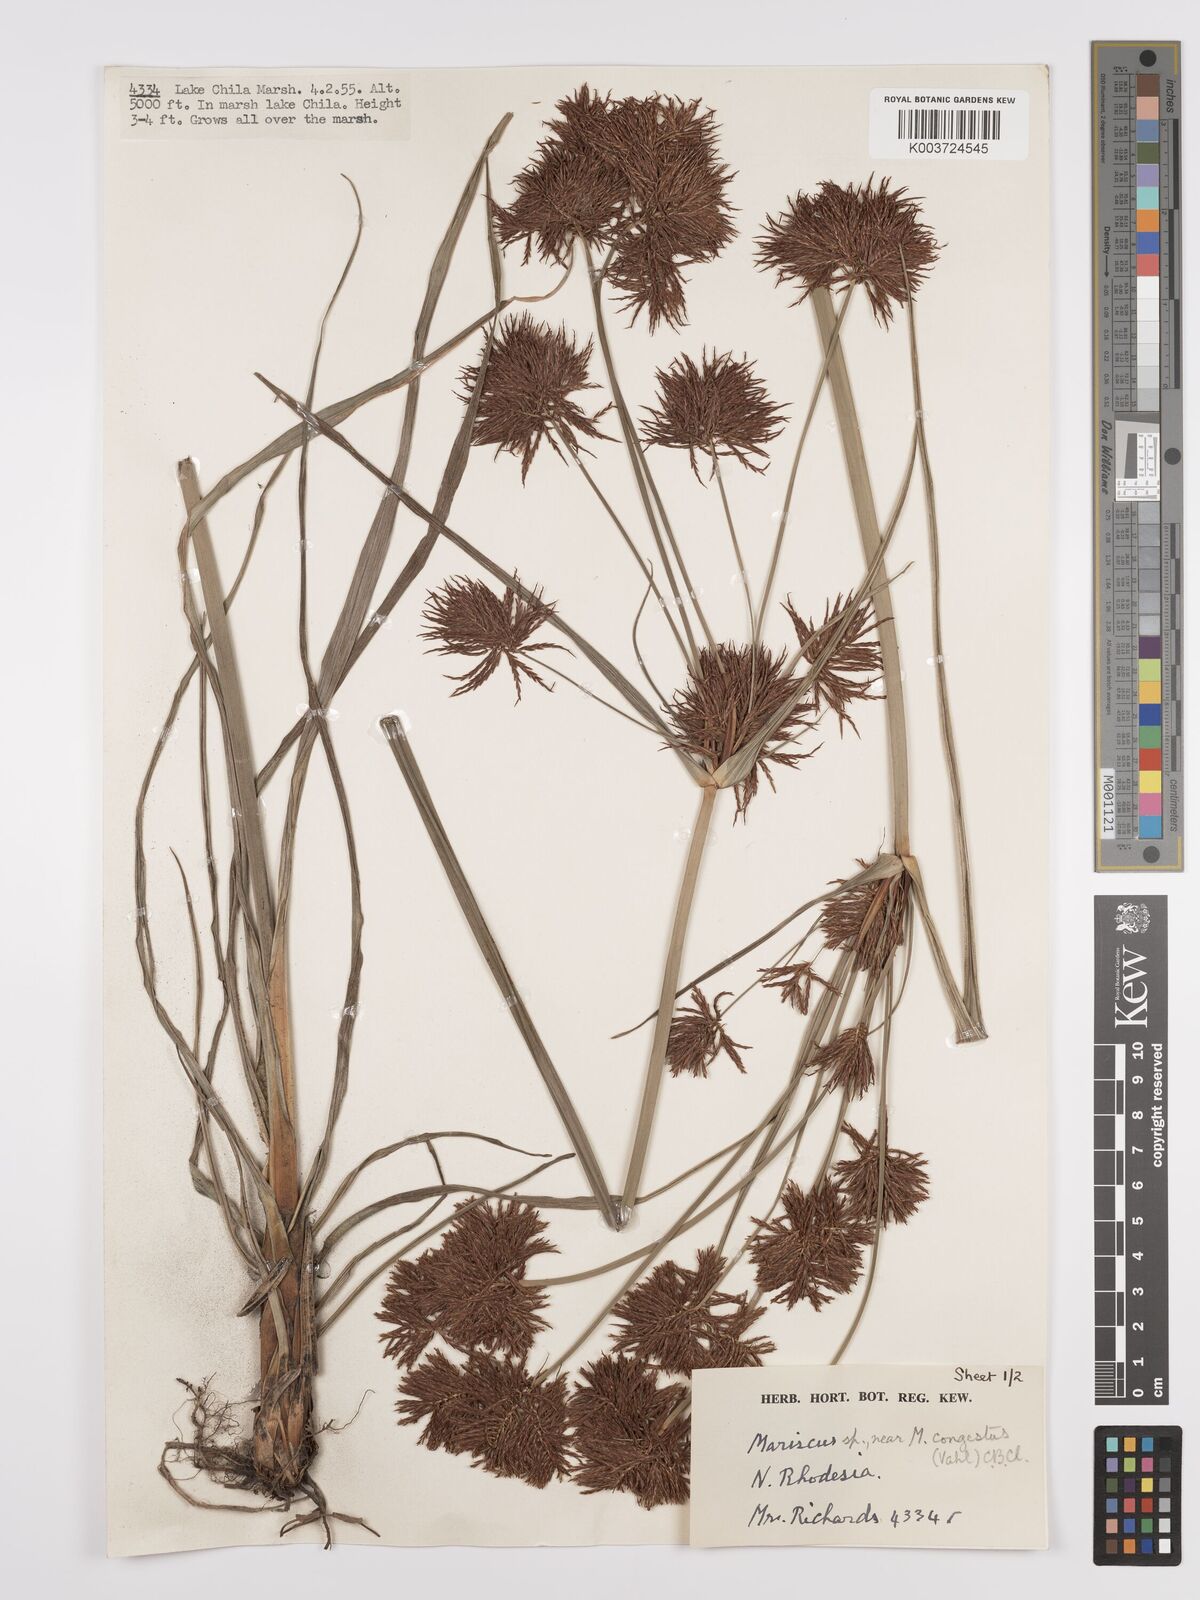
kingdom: Plantae
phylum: Tracheophyta
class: Liliopsida
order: Poales
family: Cyperaceae
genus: Cyperus
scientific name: Cyperus congestus
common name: Dense flat sedge
